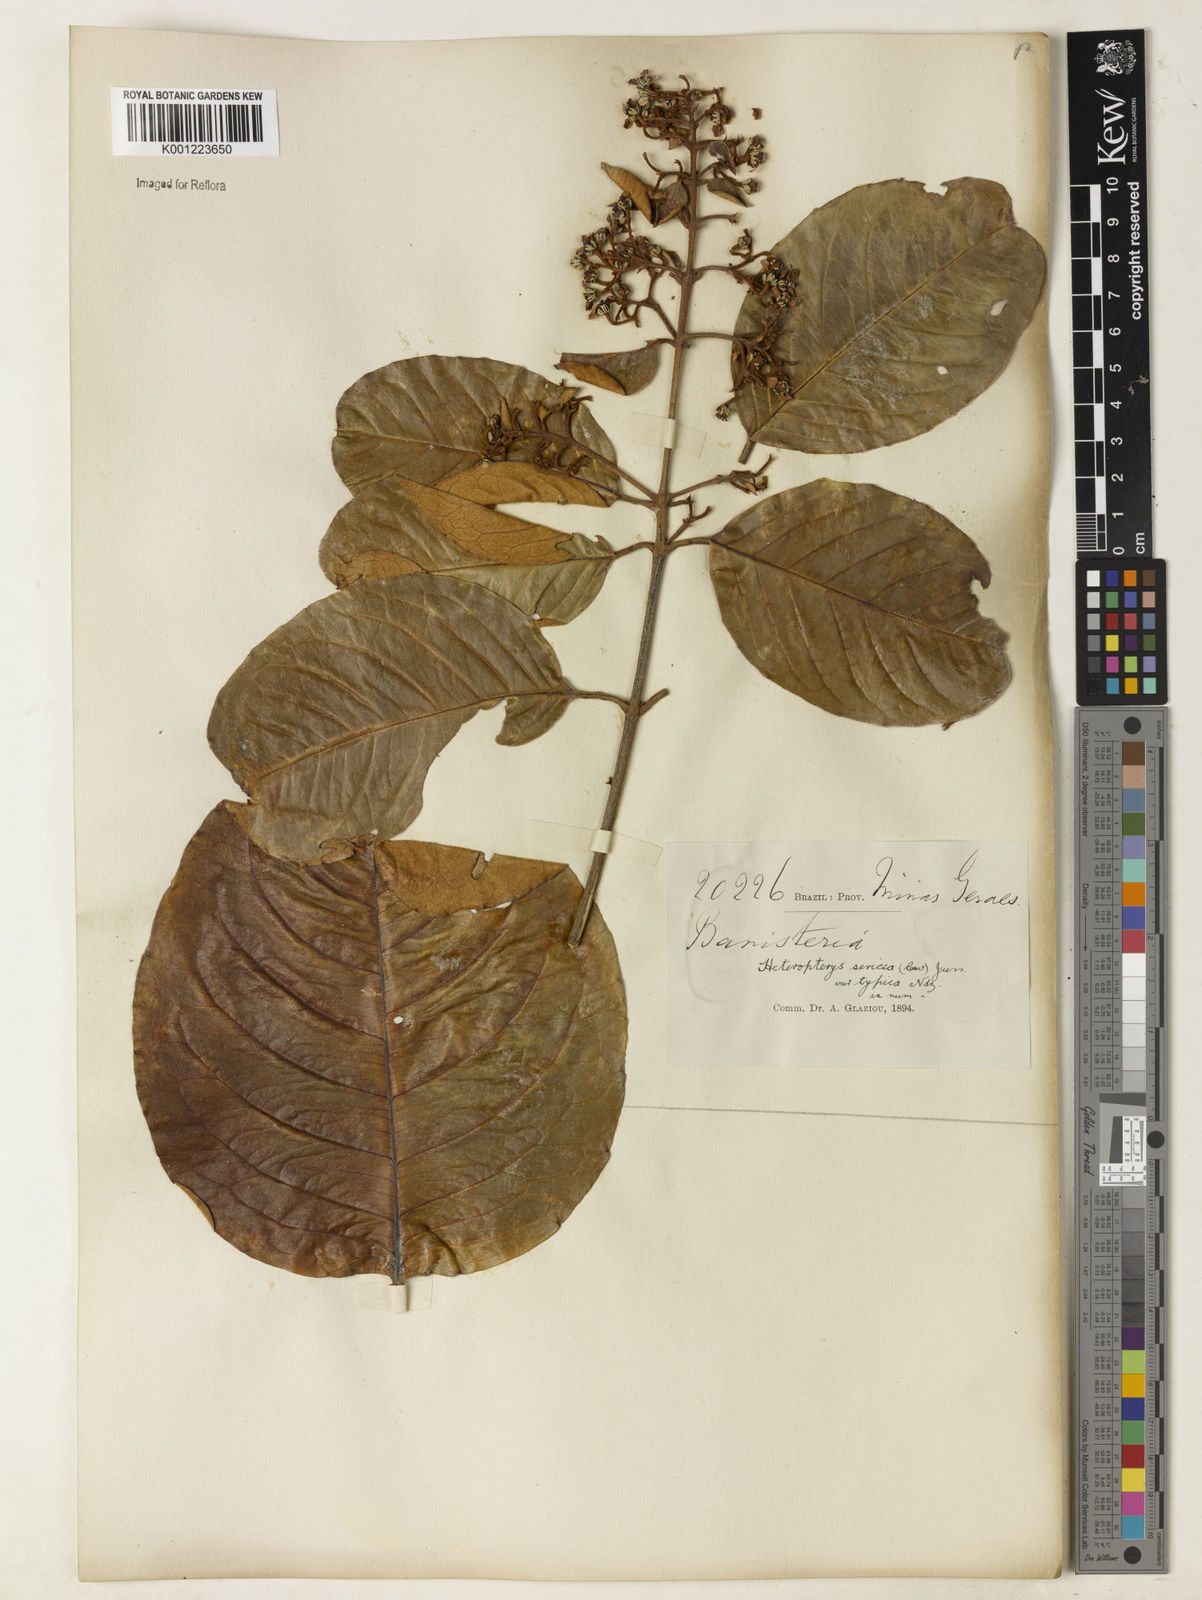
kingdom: Plantae
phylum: Tracheophyta
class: Magnoliopsida
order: Malpighiales
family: Malpighiaceae
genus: Heteropterys
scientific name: Heteropterys sericea
